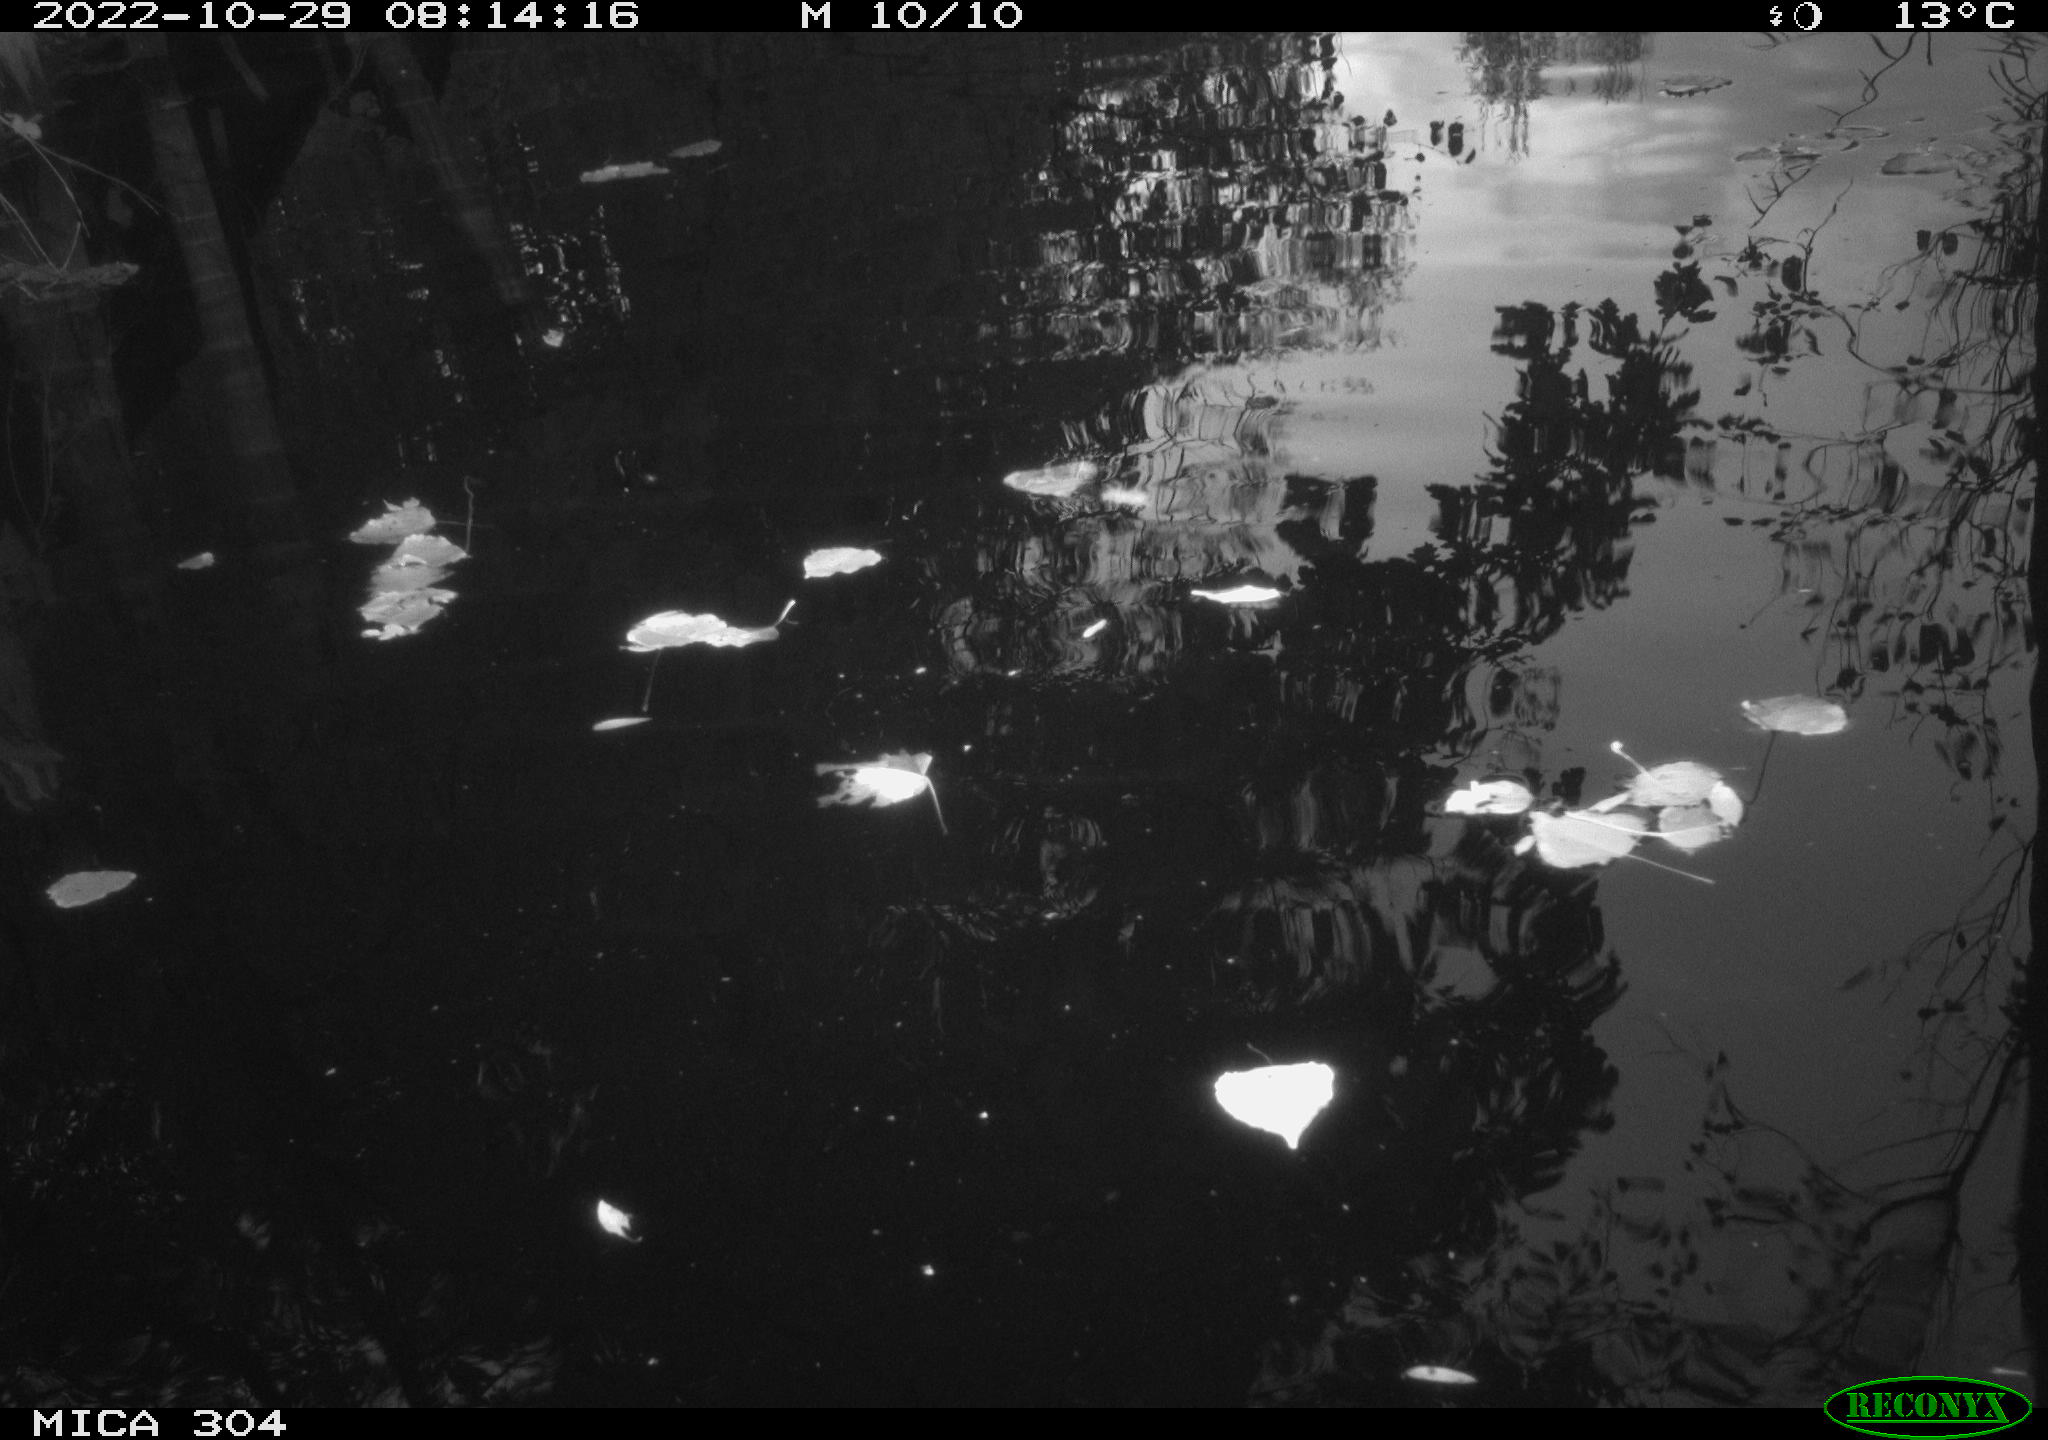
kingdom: Animalia
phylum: Chordata
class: Aves
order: Gruiformes
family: Rallidae
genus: Gallinula
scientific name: Gallinula chloropus
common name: Common moorhen
